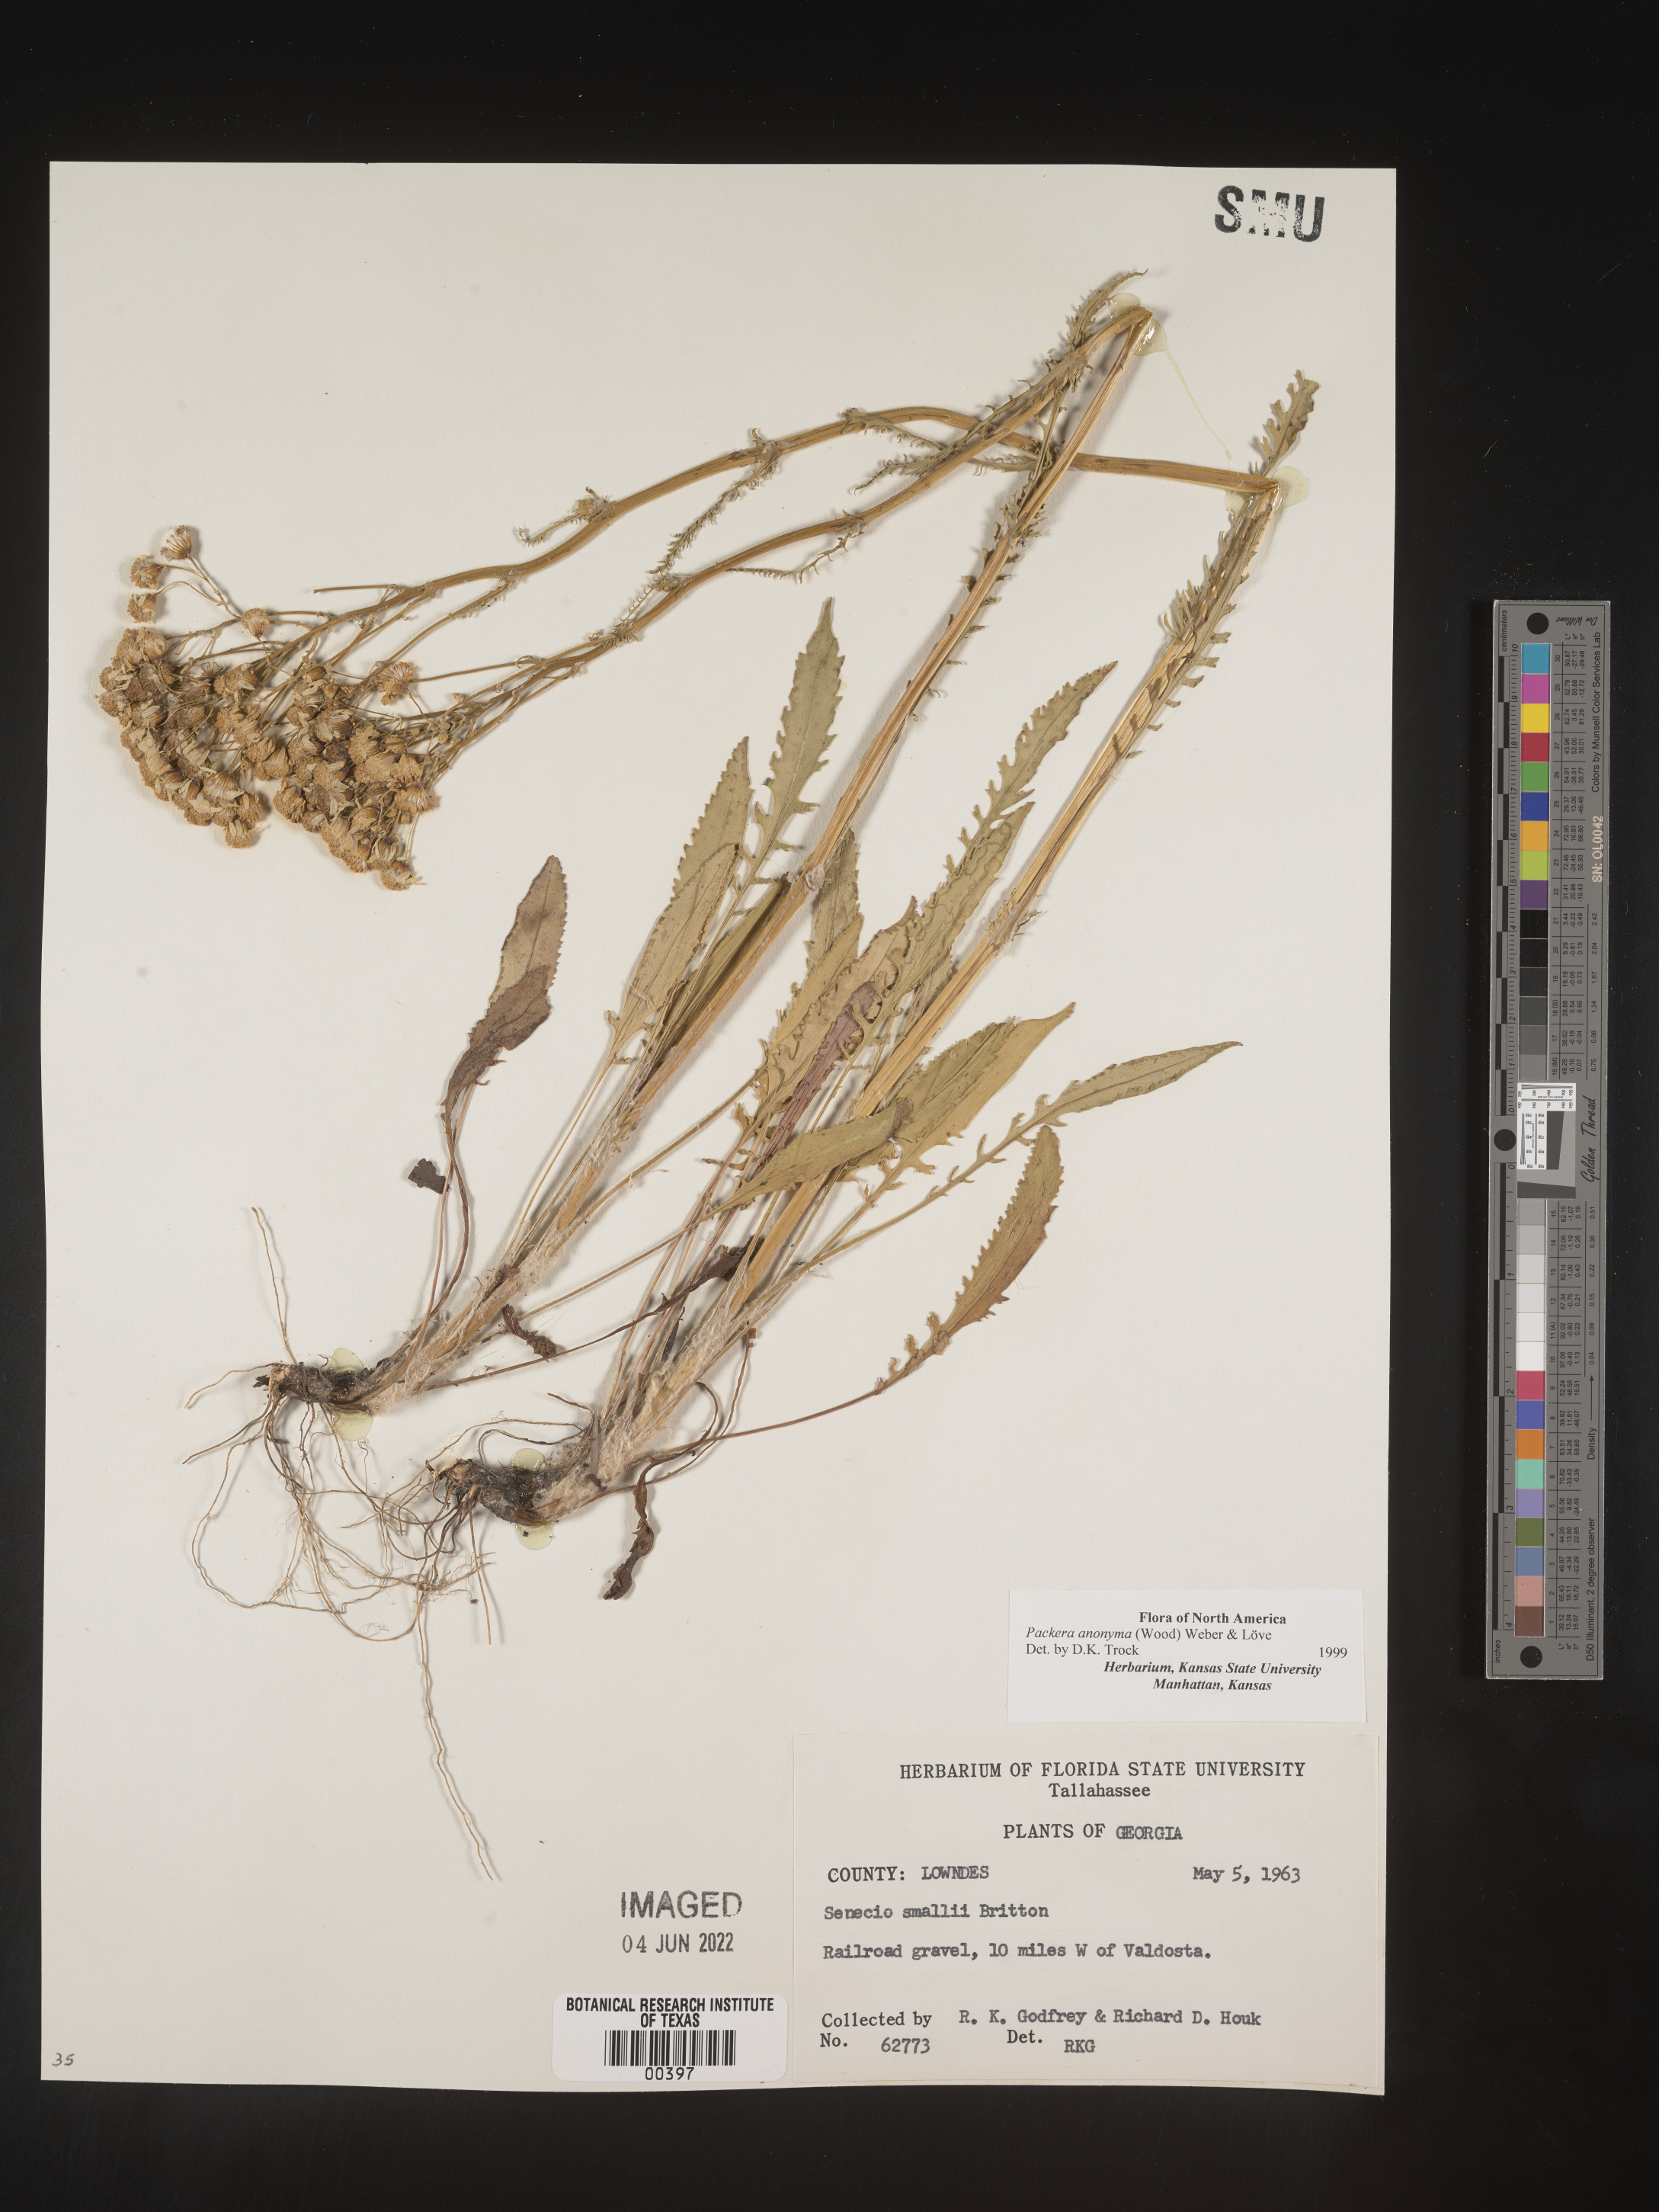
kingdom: Plantae
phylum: Tracheophyta
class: Magnoliopsida
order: Asterales
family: Asteraceae
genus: Packera
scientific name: Packera anonyma
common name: Small ragwort
